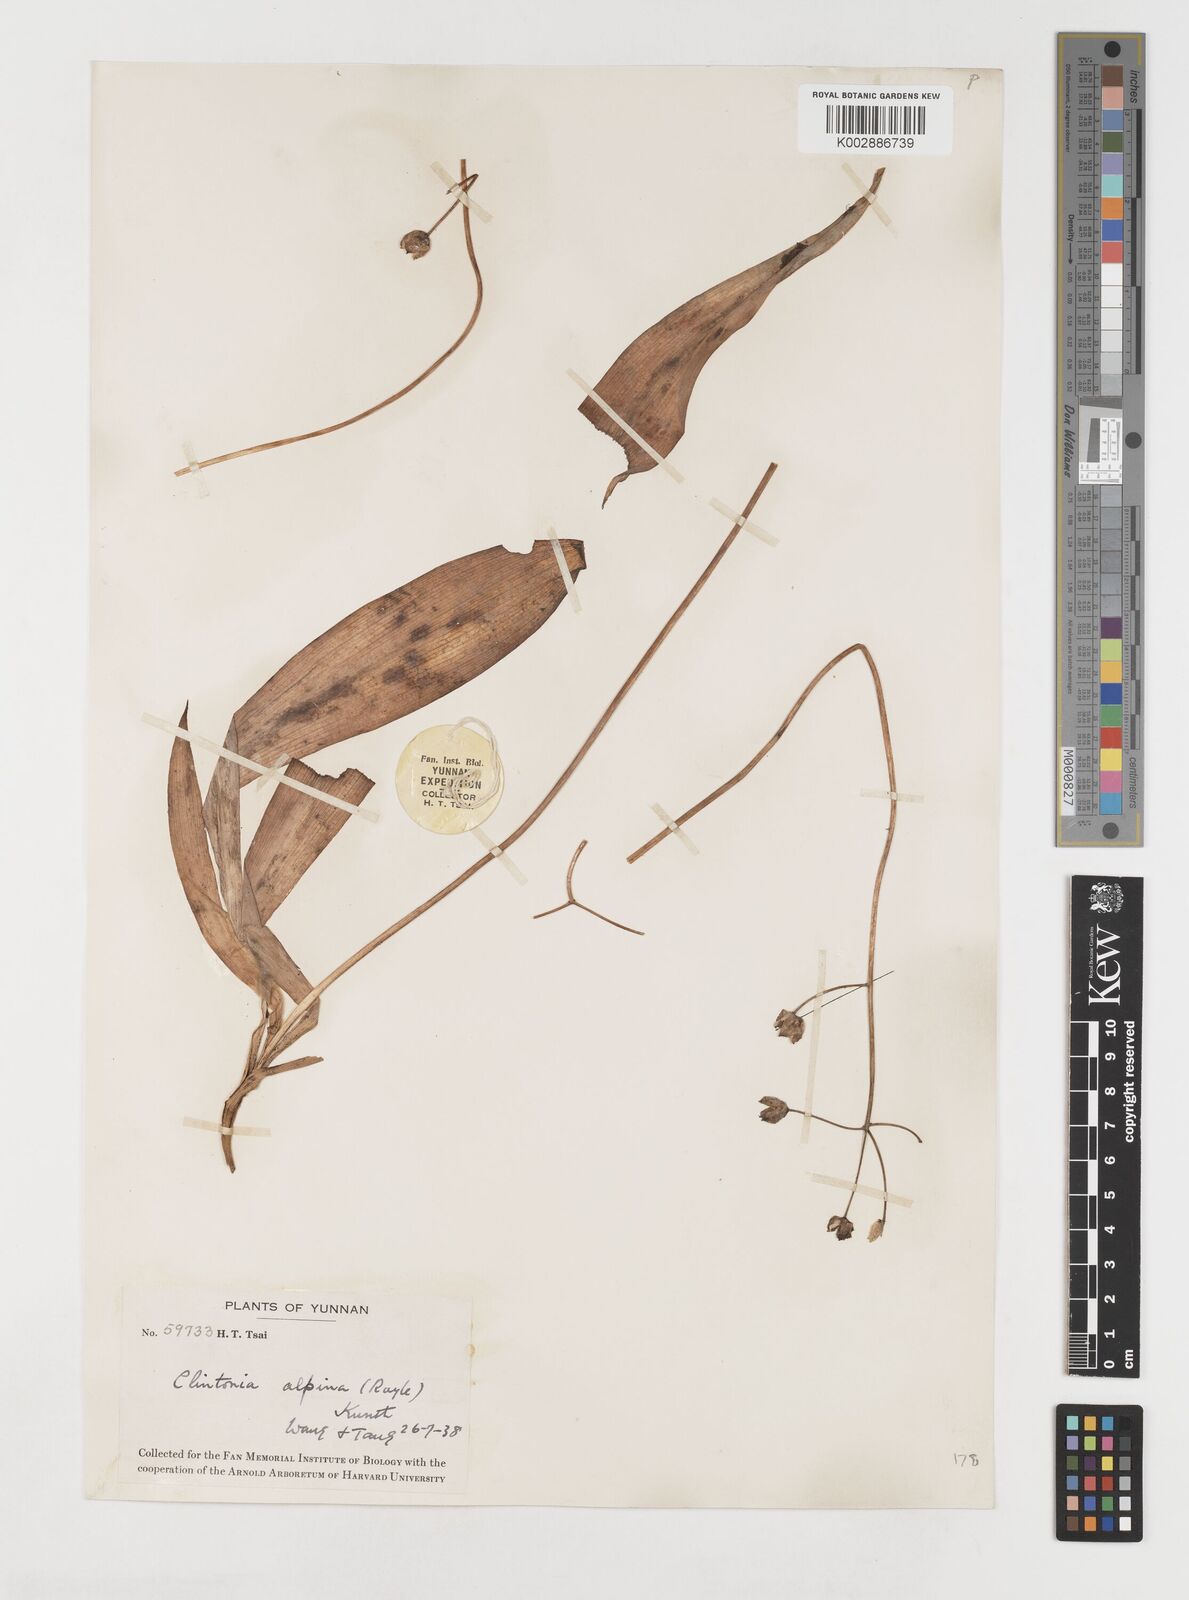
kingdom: Plantae
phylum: Tracheophyta
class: Liliopsida
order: Liliales
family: Liliaceae
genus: Clintonia
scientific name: Clintonia udensis
